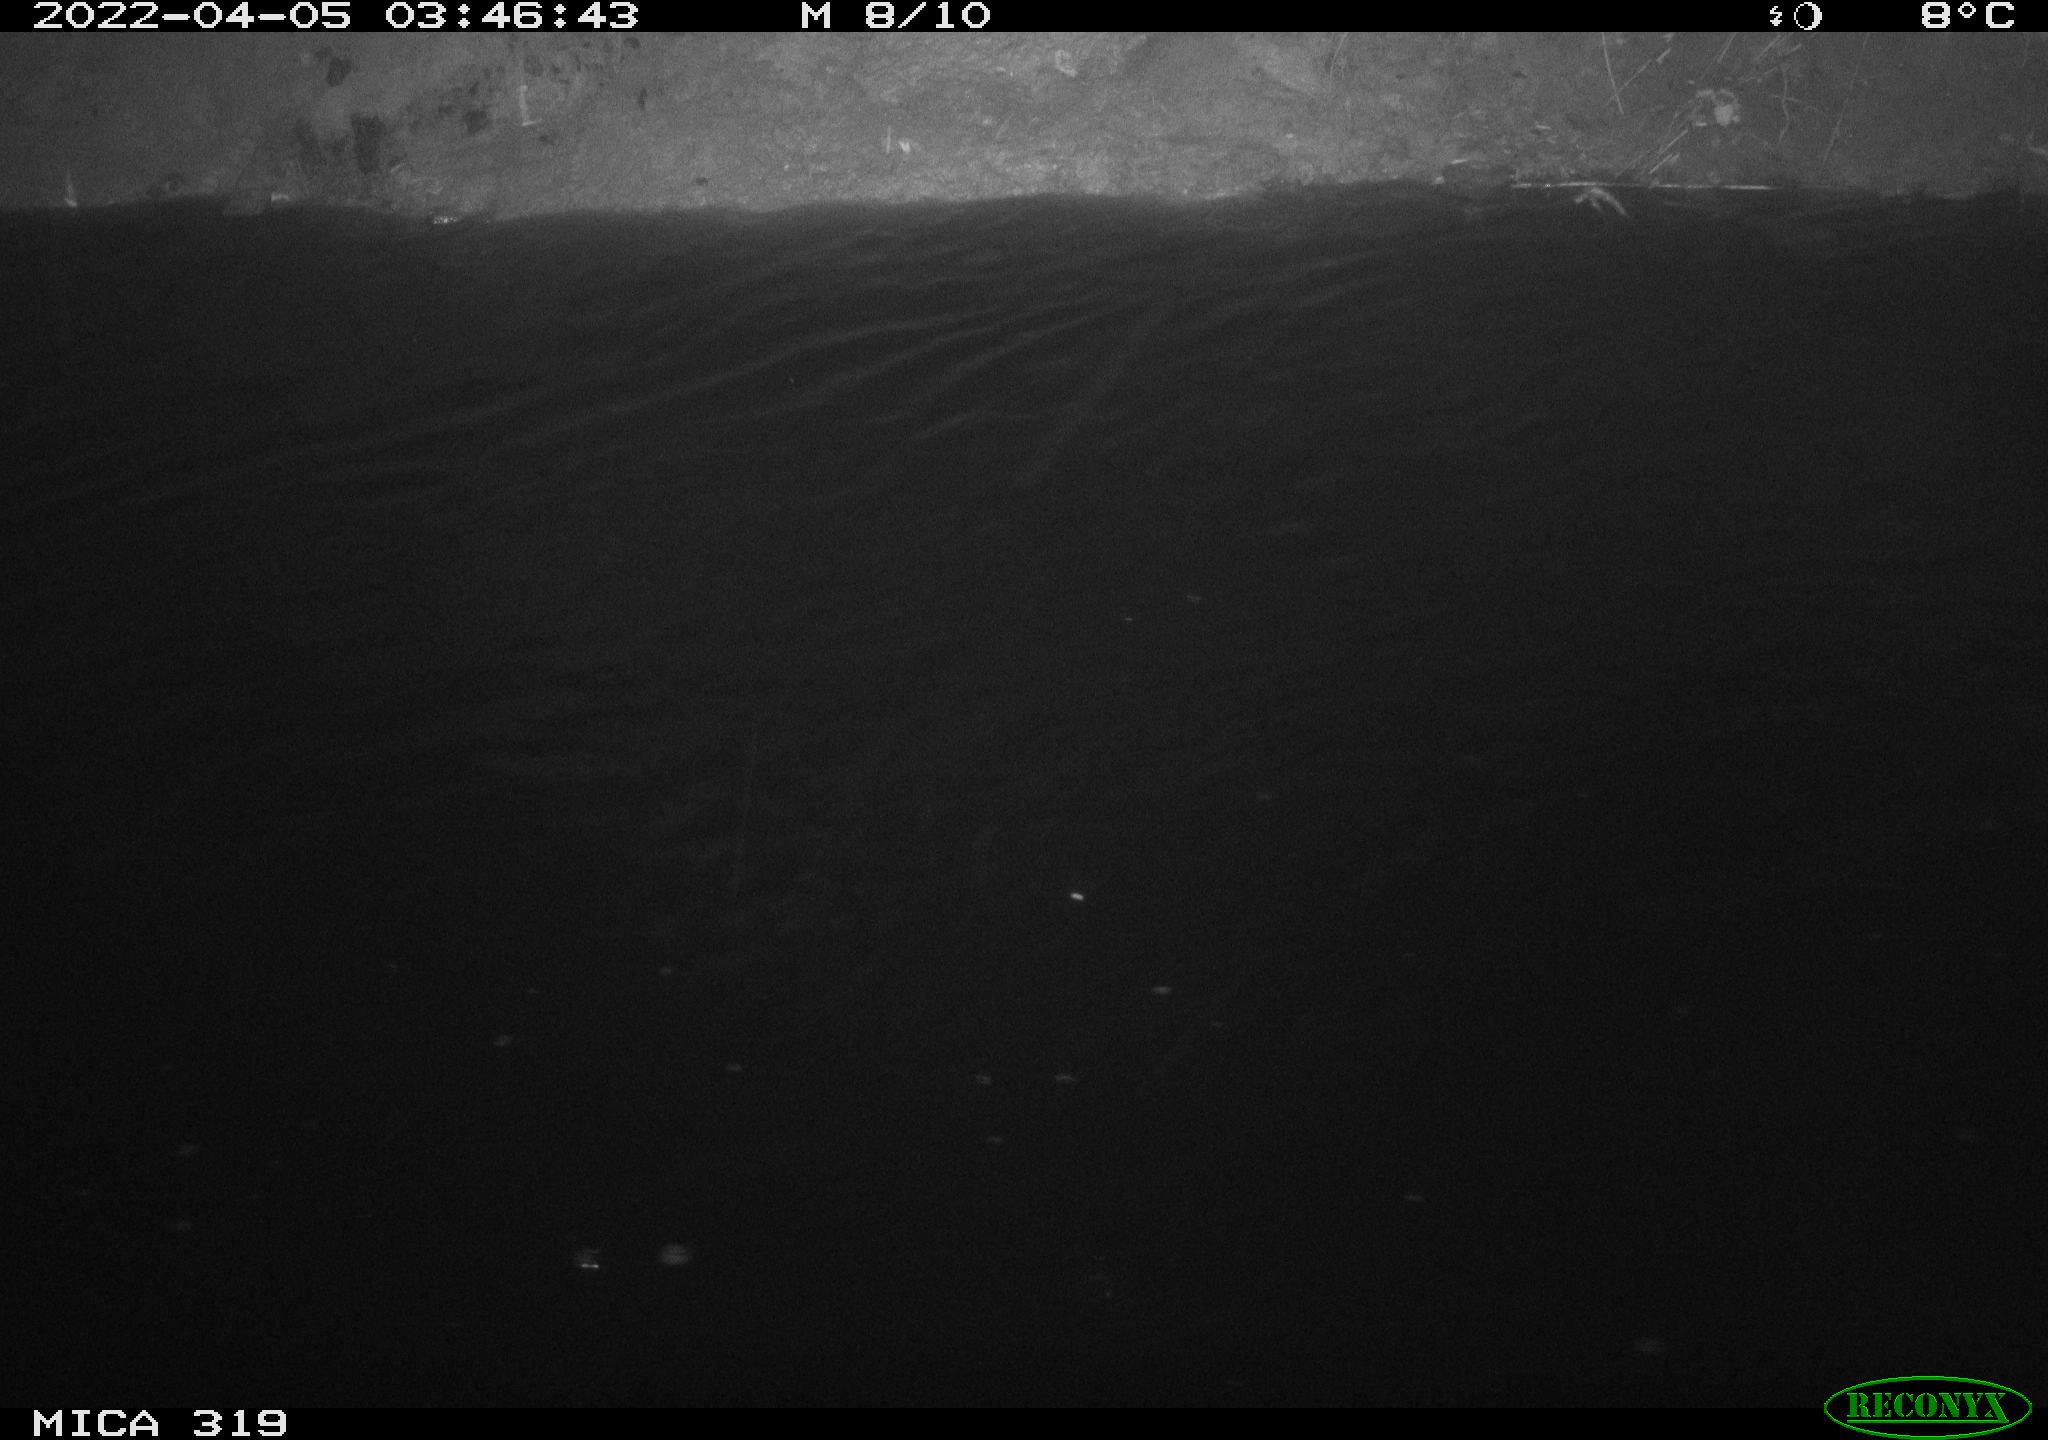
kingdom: Animalia
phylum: Chordata
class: Aves
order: Anseriformes
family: Anatidae
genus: Anas
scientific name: Anas platyrhynchos
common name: Mallard
